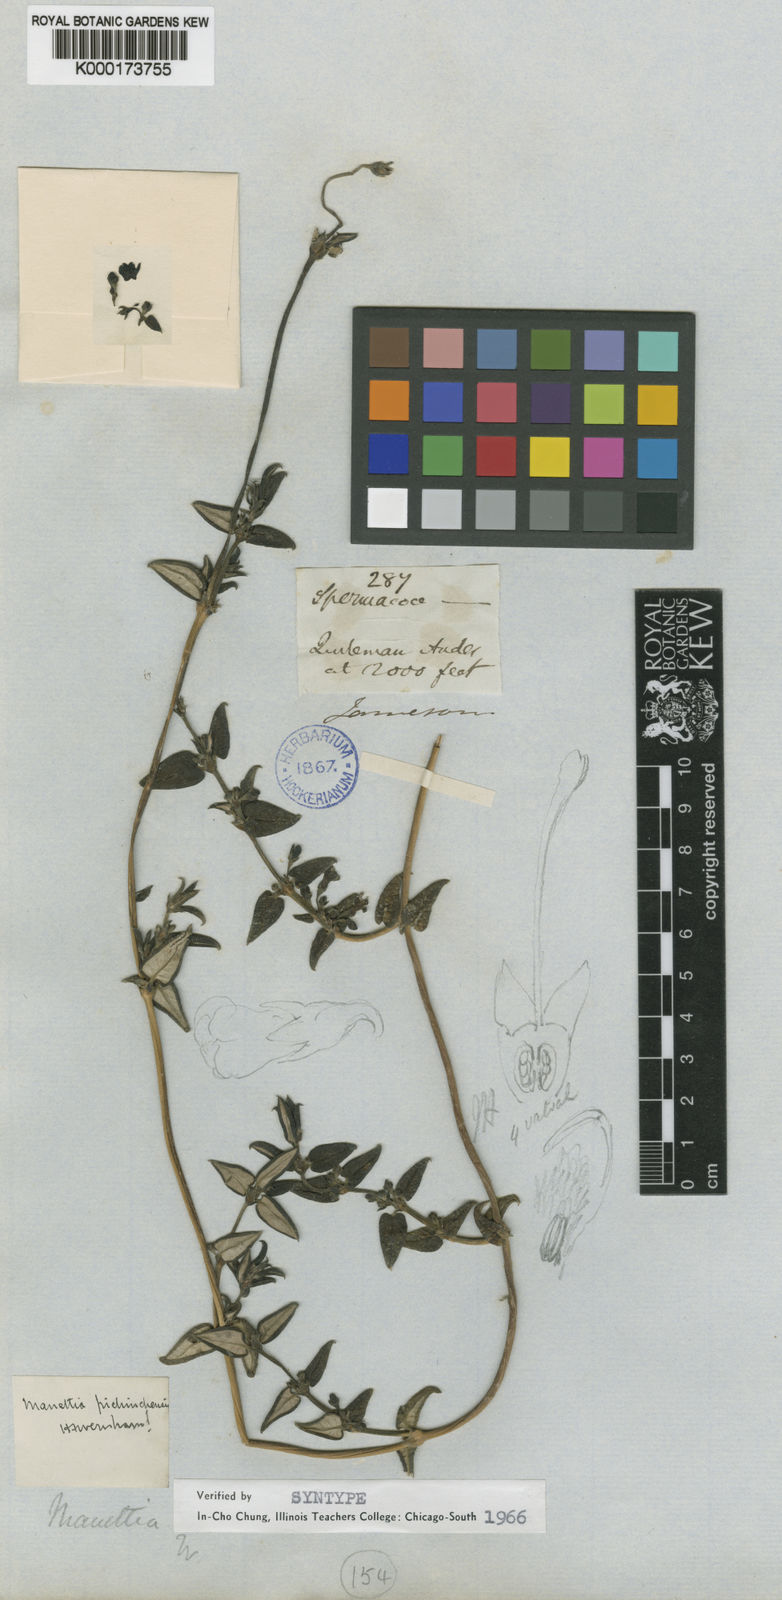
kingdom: Plantae
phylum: Tracheophyta
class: Magnoliopsida
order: Gentianales
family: Rubiaceae
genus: Manettia
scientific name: Manettia pichinchensis
